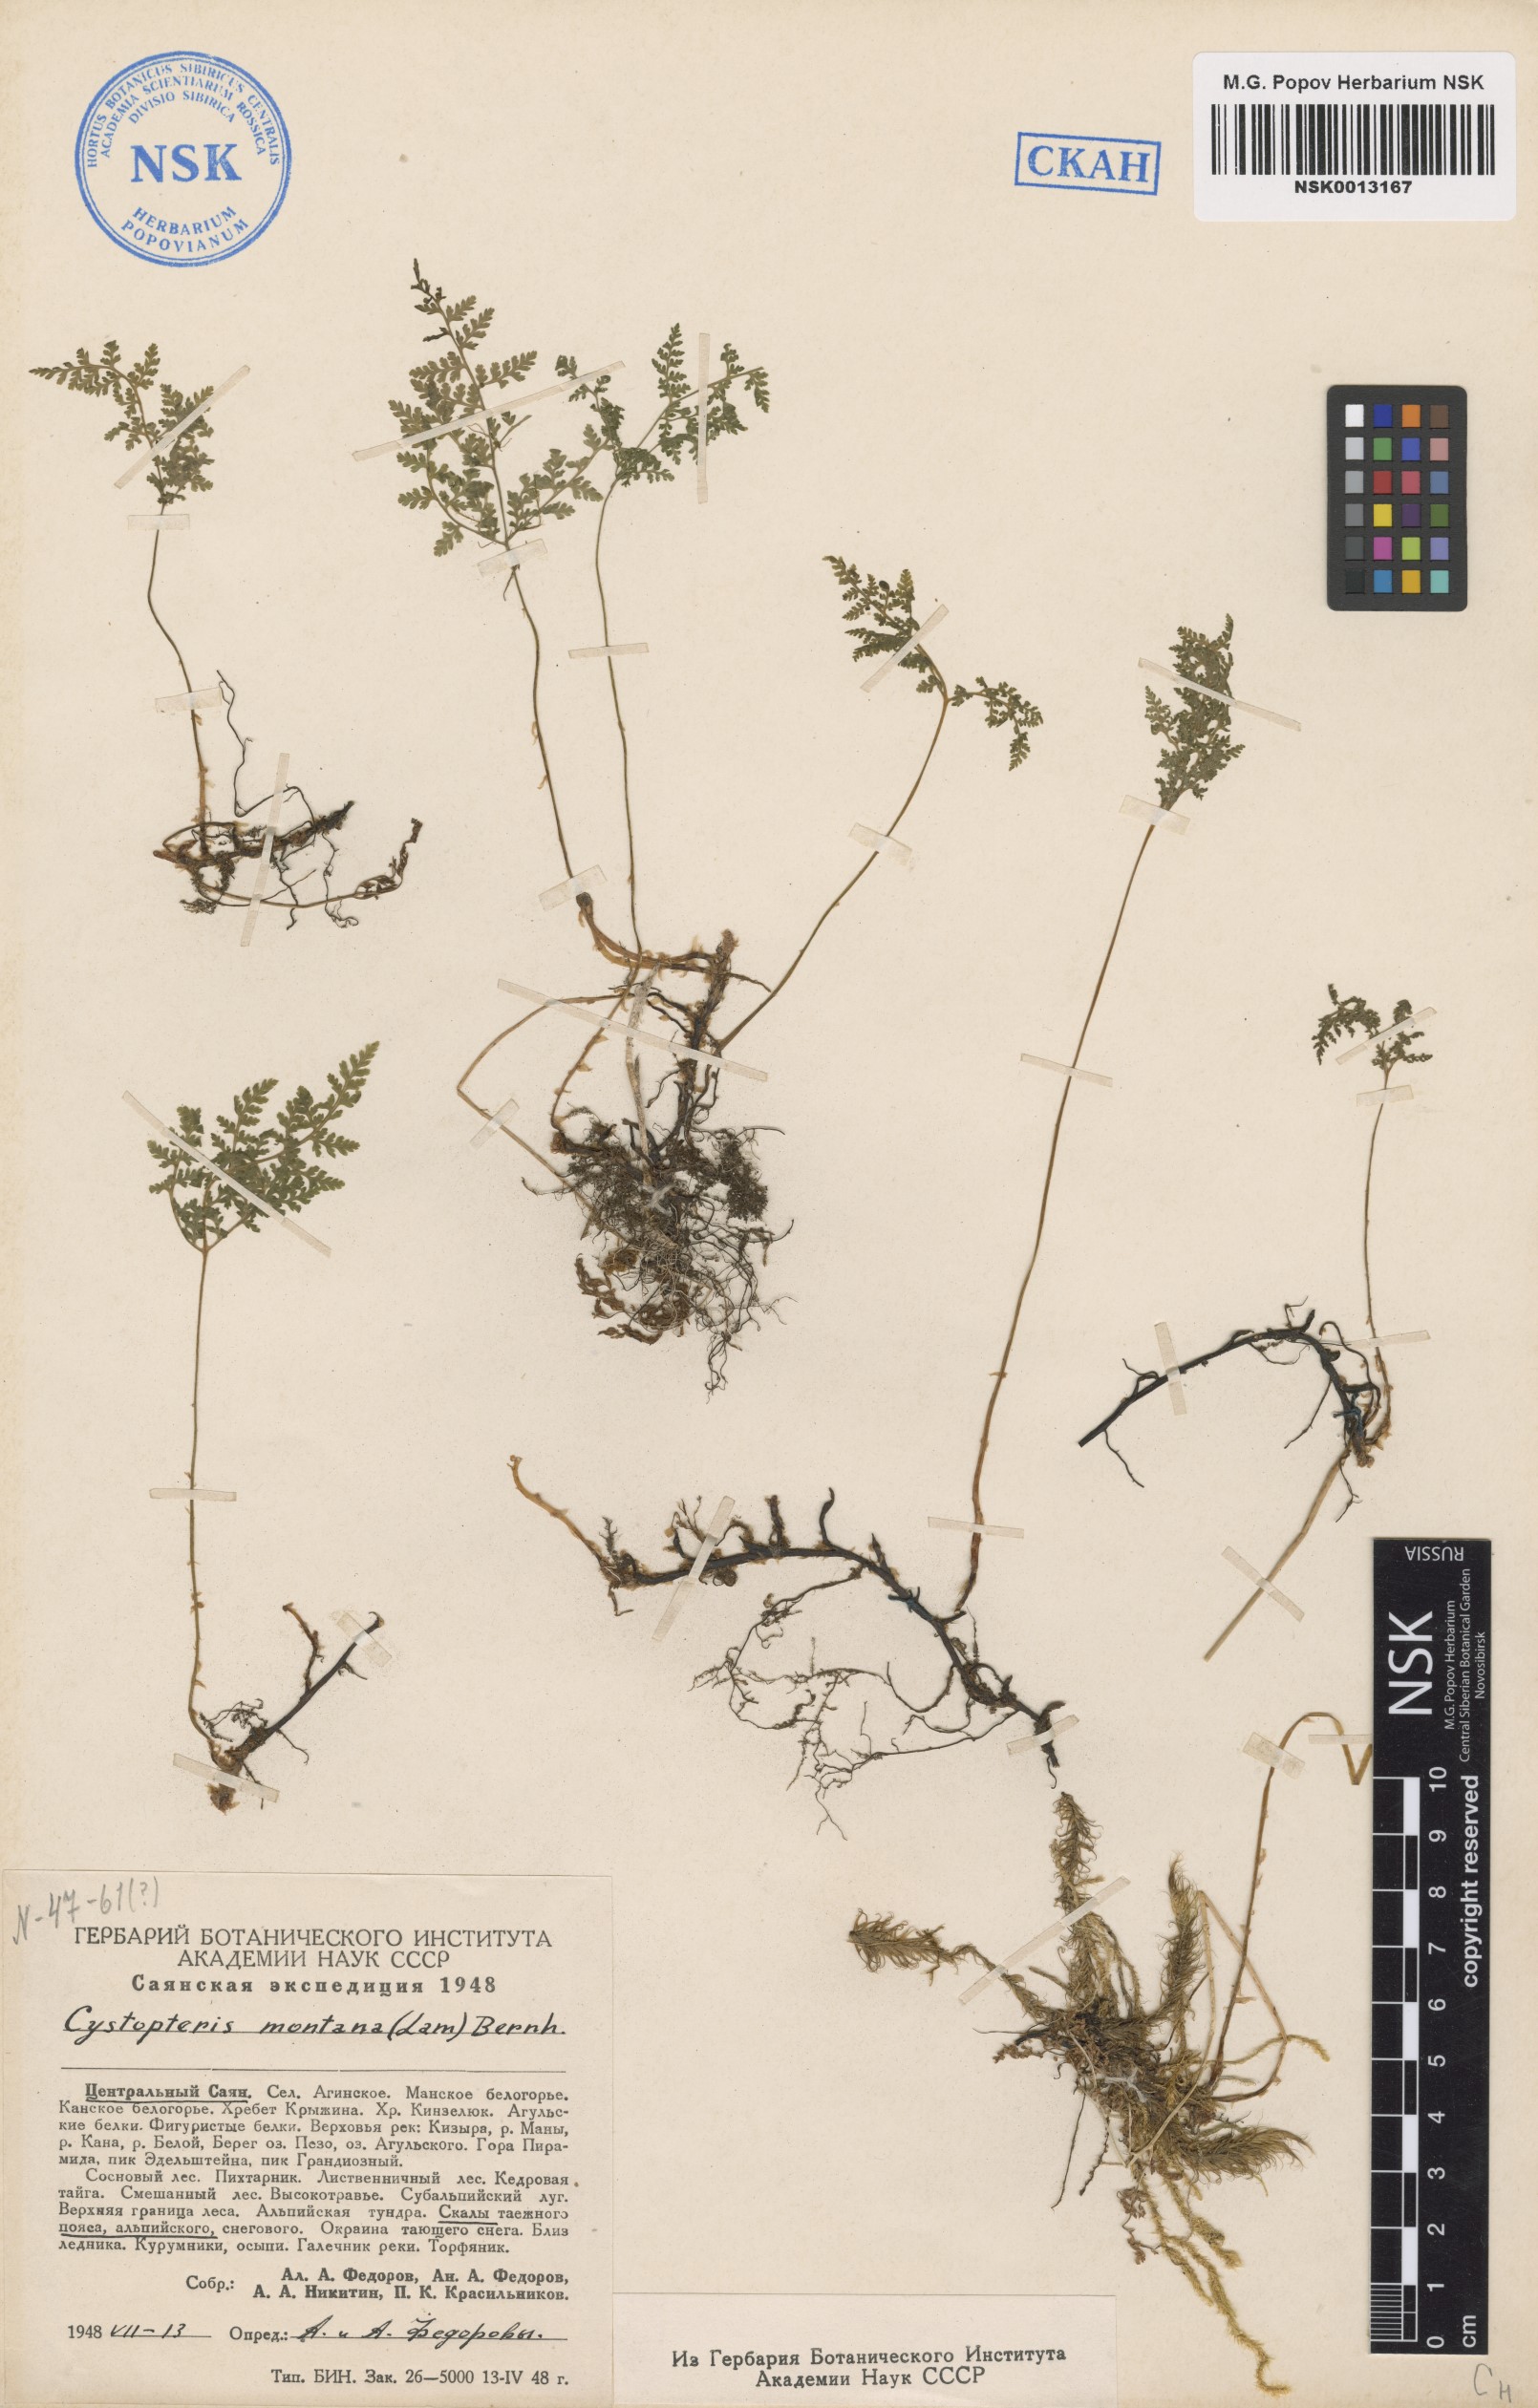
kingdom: Plantae
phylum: Tracheophyta
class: Polypodiopsida
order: Polypodiales
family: Cystopteridaceae
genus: Cystopteris
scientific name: Cystopteris montana
